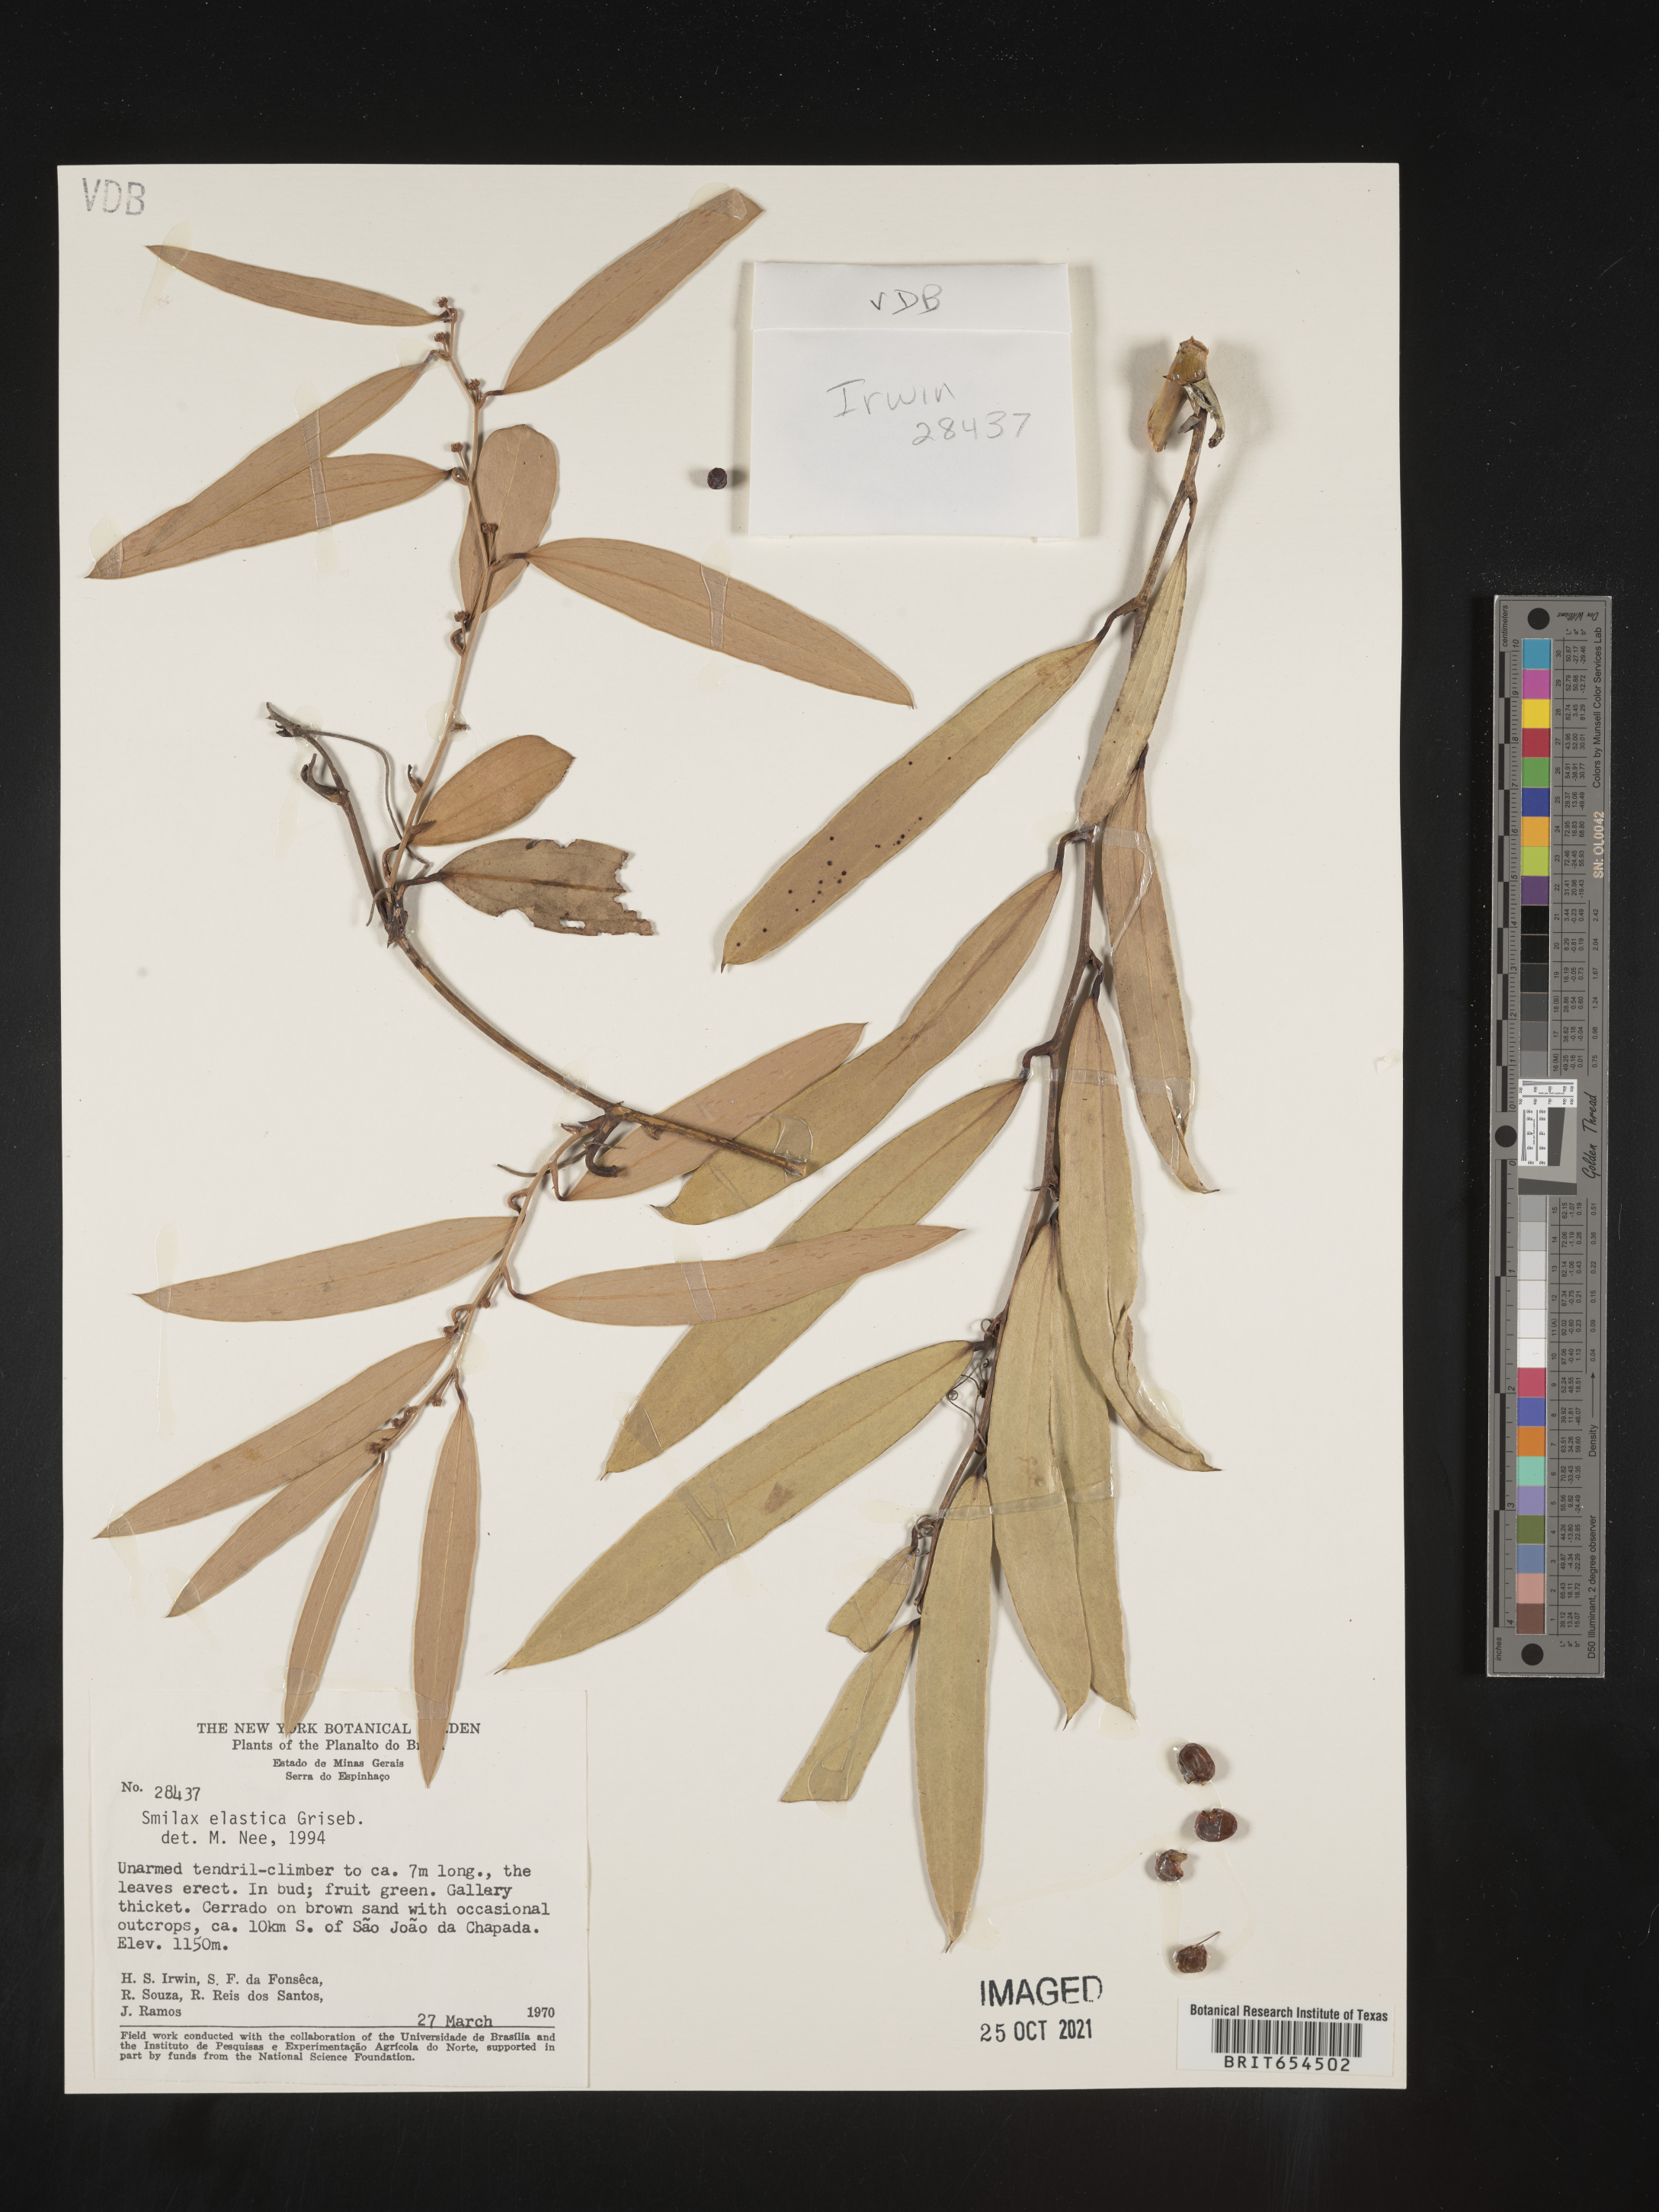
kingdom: Plantae
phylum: Tracheophyta
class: Liliopsida
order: Liliales
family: Smilacaceae
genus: Smilax
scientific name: Smilax
